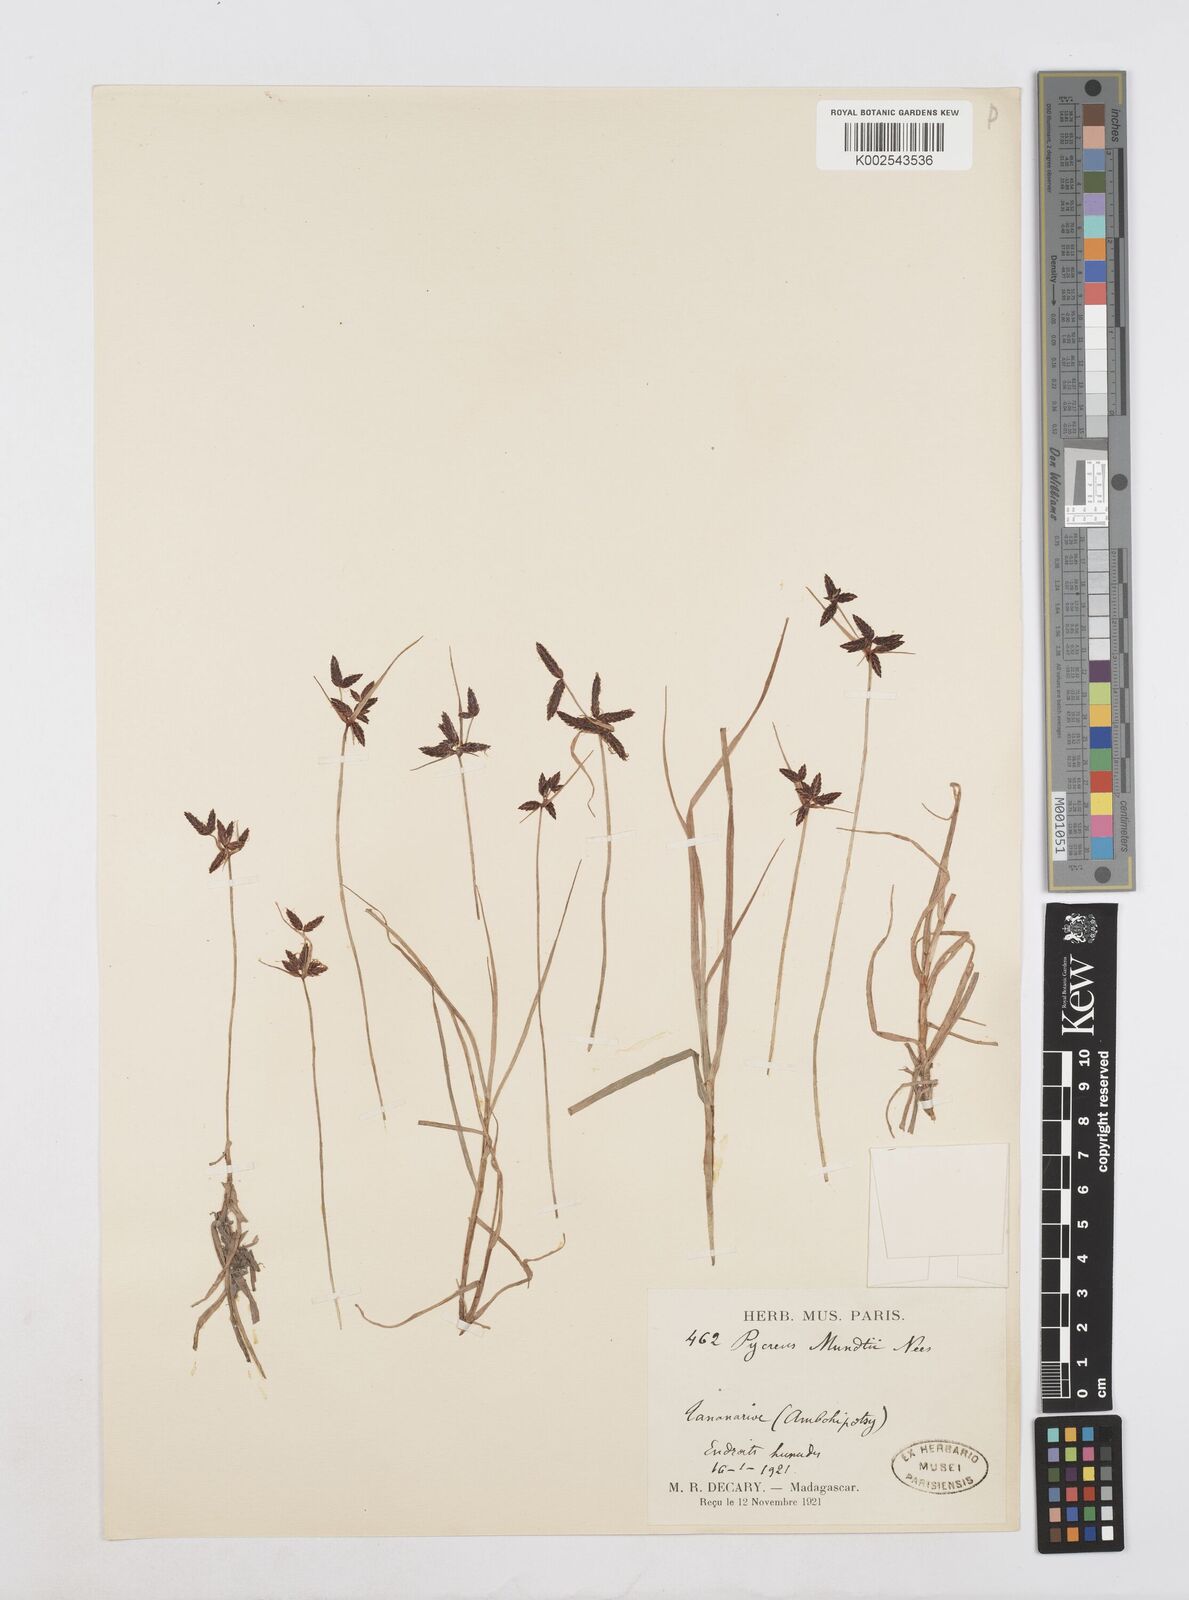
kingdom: Plantae
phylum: Tracheophyta
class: Liliopsida
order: Poales
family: Cyperaceae
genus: Cyperus
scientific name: Cyperus mundii
